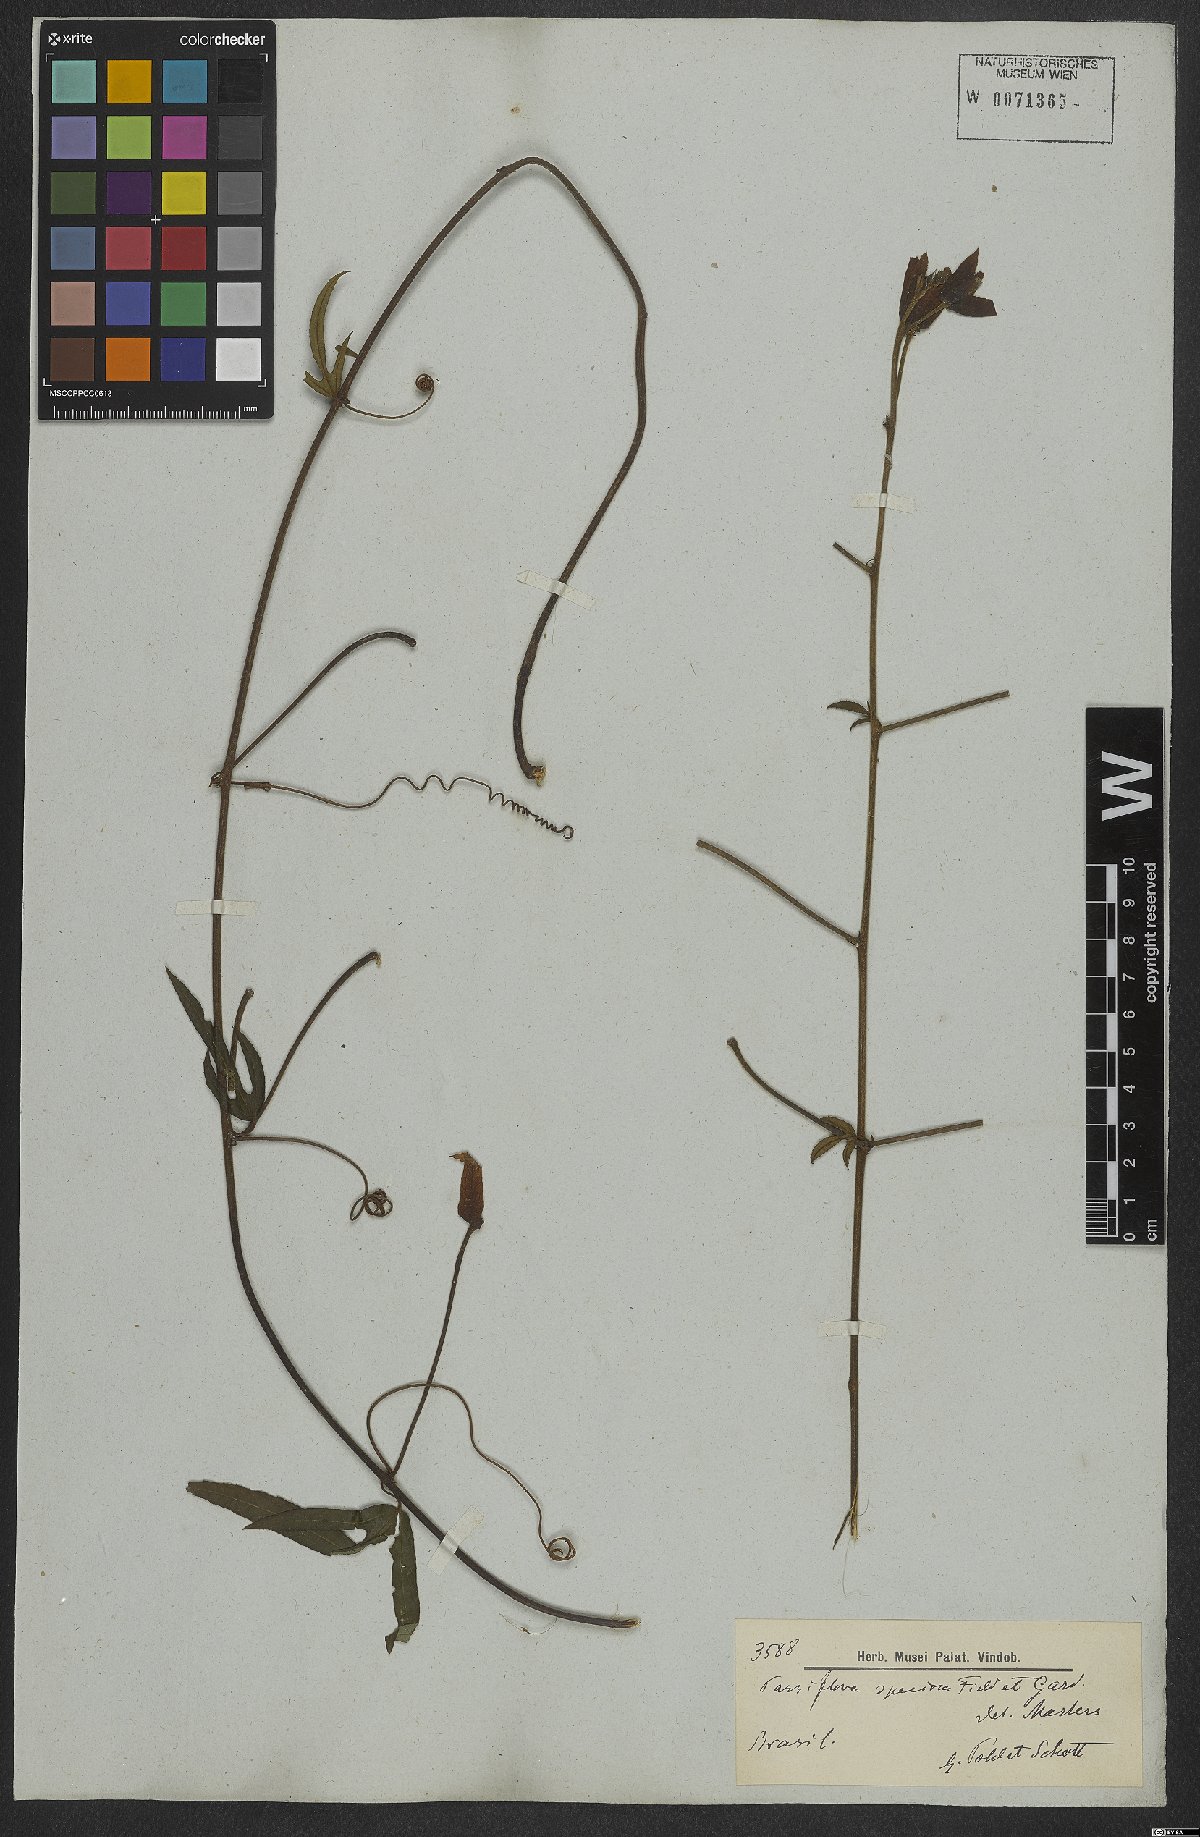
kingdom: Plantae
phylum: Tracheophyta
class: Magnoliopsida
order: Malpighiales
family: Passifloraceae
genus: Passiflora
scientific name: Passiflora speciosa
